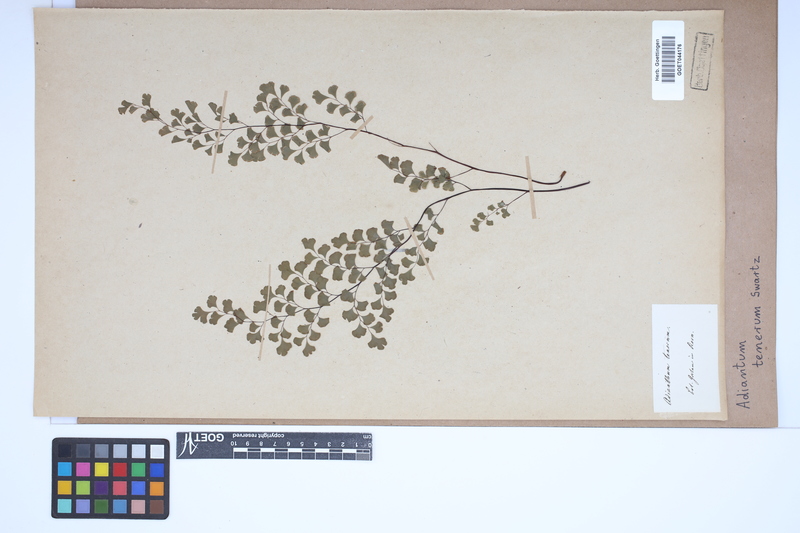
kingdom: Plantae
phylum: Tracheophyta
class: Polypodiopsida
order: Polypodiales
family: Pteridaceae
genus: Adiantum
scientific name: Adiantum tenerum
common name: Fan maidenhair
